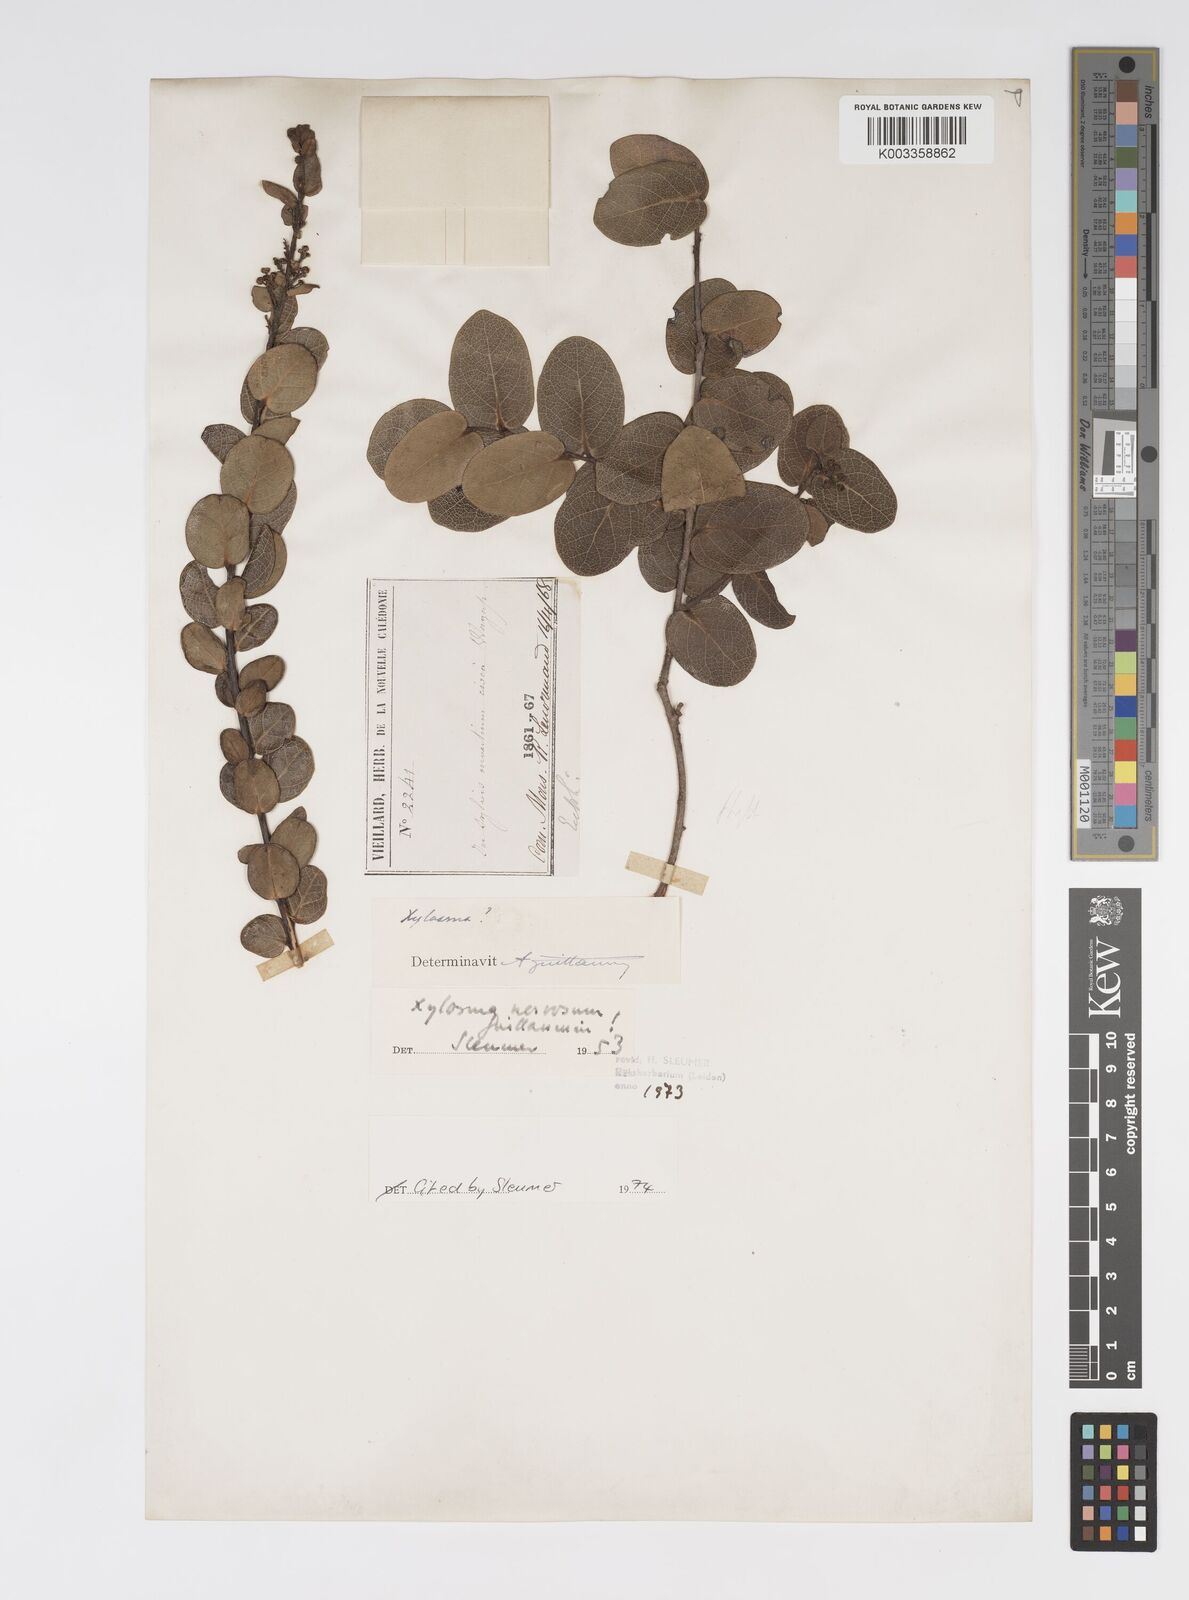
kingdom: Plantae
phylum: Tracheophyta
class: Magnoliopsida
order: Malpighiales
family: Salicaceae
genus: Xylosma
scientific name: Xylosma nervosa
